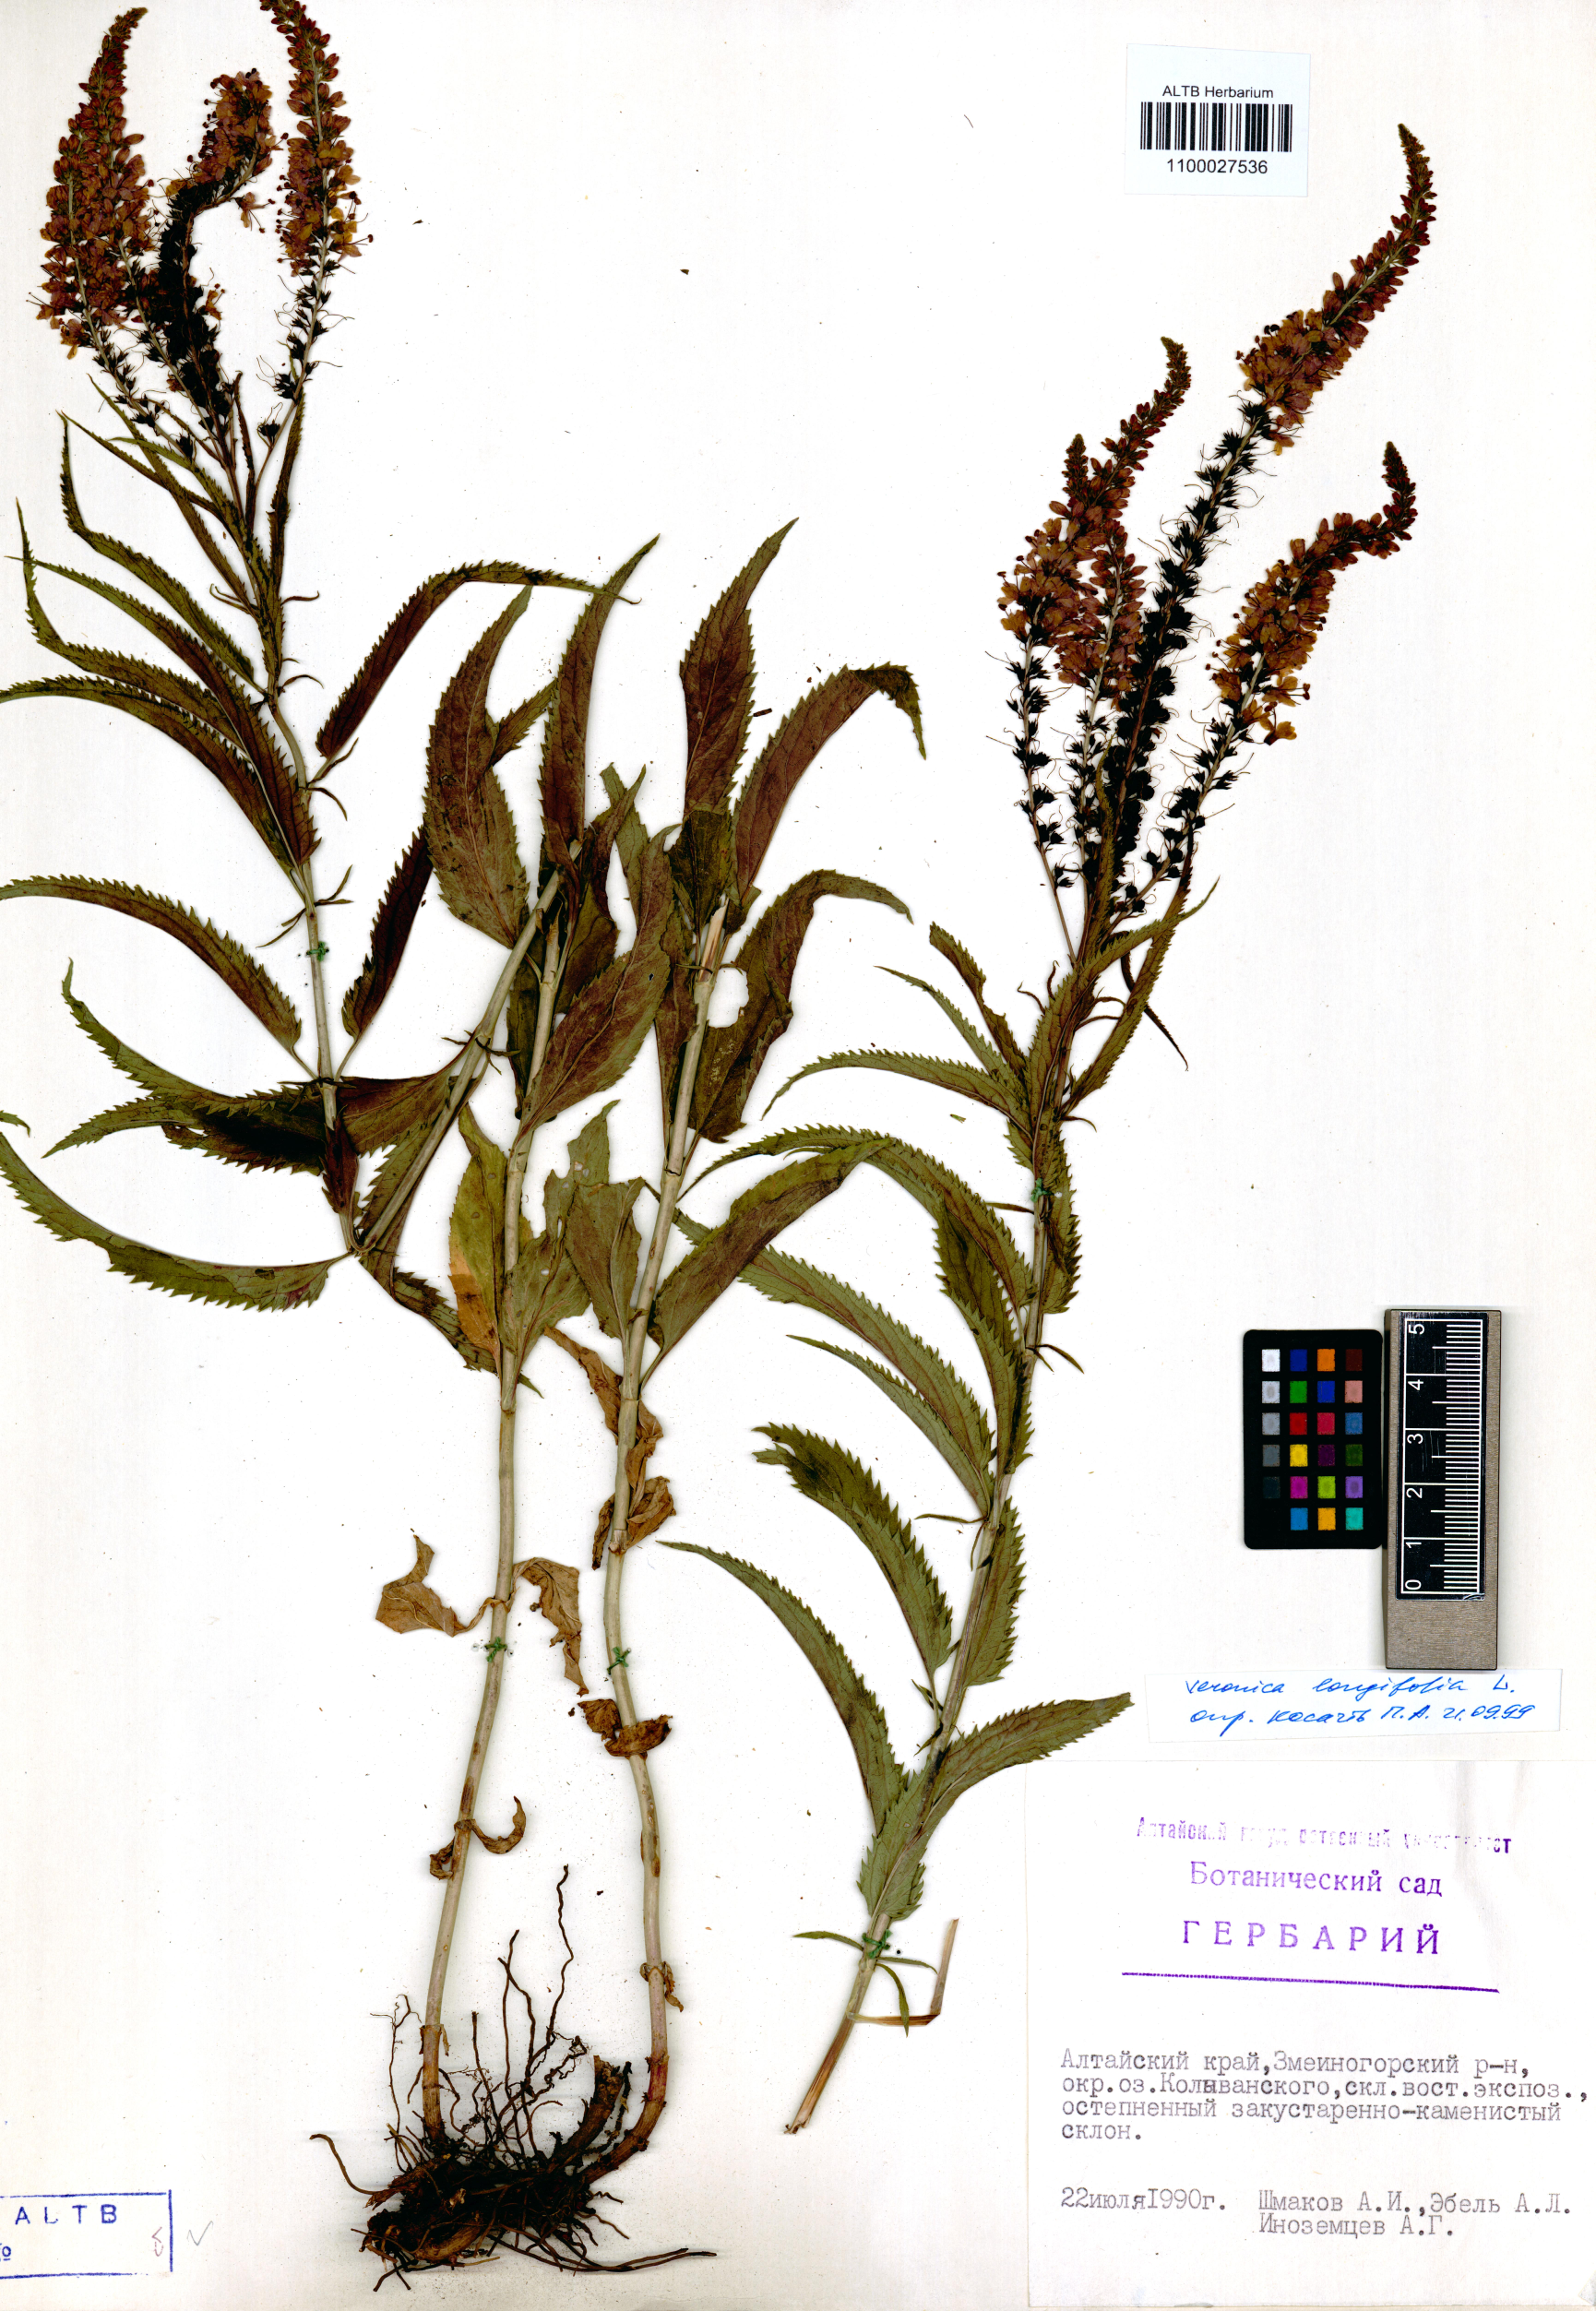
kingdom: Plantae
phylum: Tracheophyta
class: Magnoliopsida
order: Lamiales
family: Plantaginaceae
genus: Veronica
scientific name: Veronica longifolia
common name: Garden speedwell
